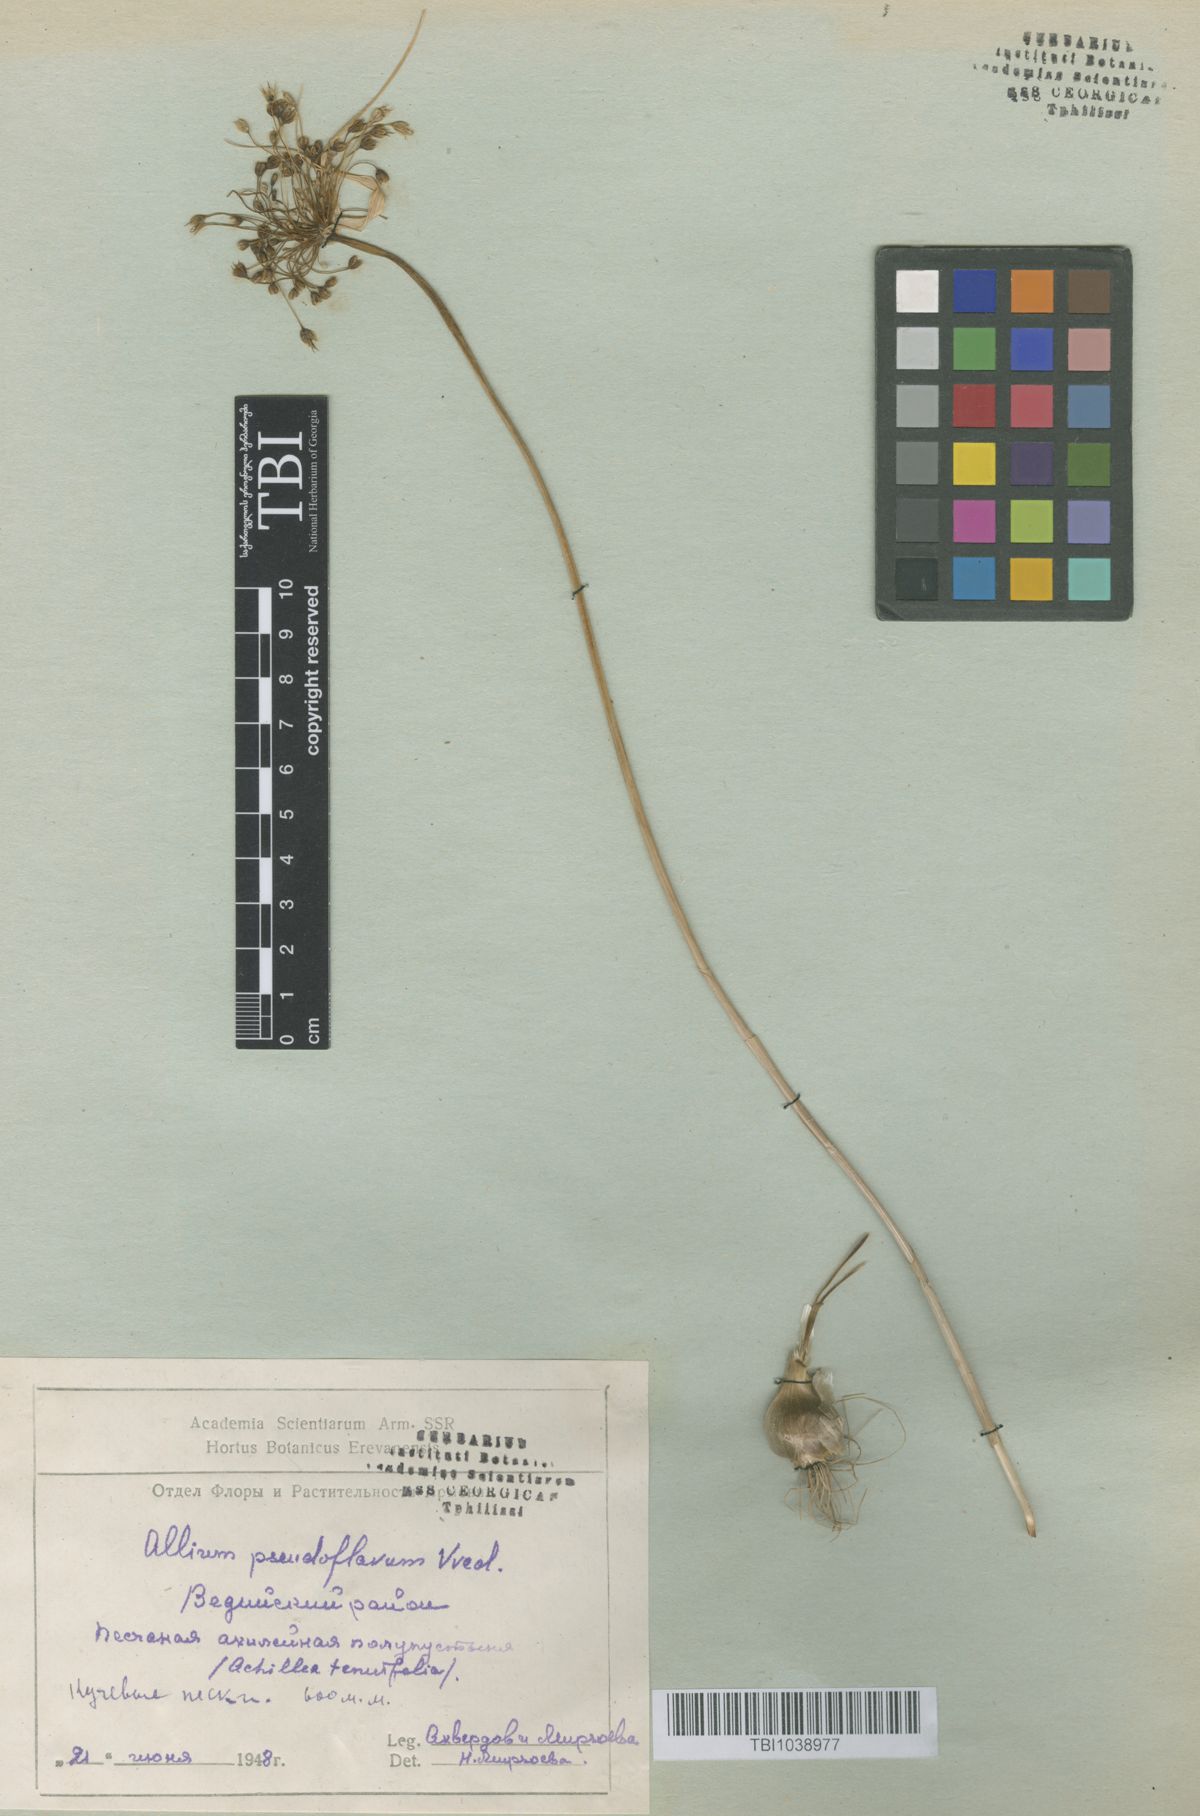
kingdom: Plantae
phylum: Tracheophyta
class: Liliopsida
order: Asparagales
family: Amaryllidaceae
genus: Allium
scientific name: Allium pseudoflavum
